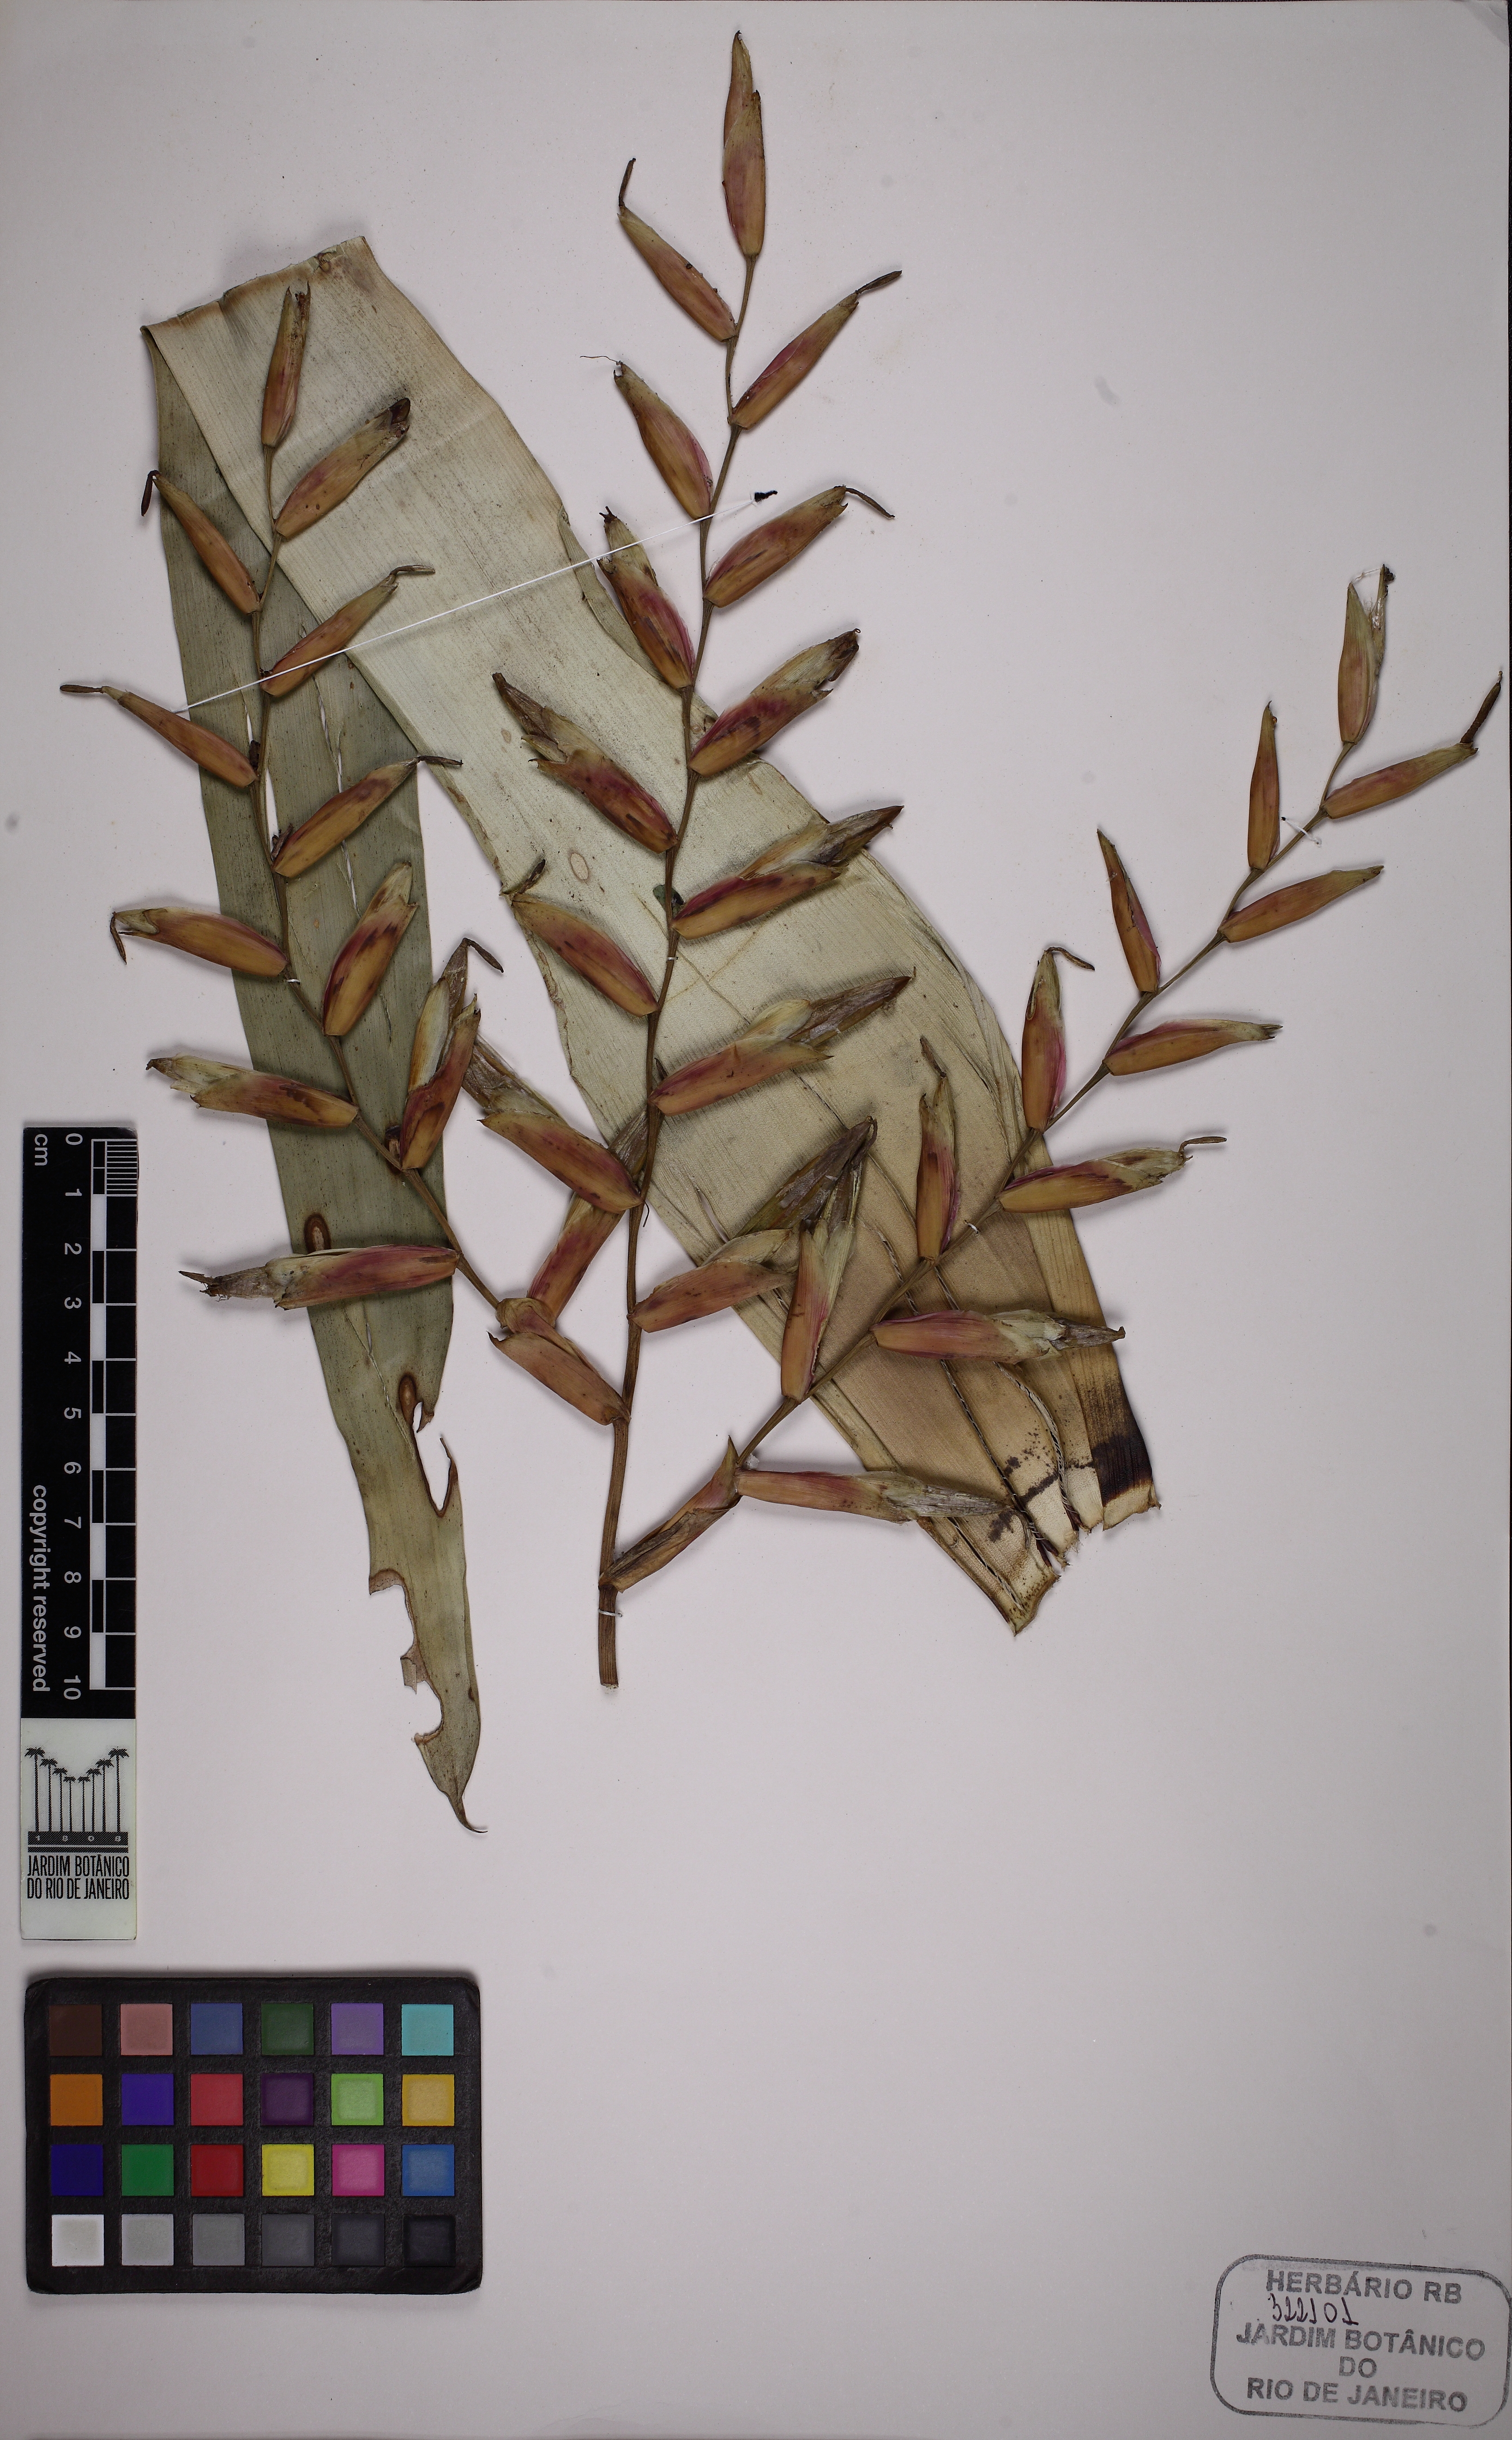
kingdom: Plantae
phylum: Tracheophyta
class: Liliopsida
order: Poales
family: Bromeliaceae
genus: Vriesea
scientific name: Vriesea procera
